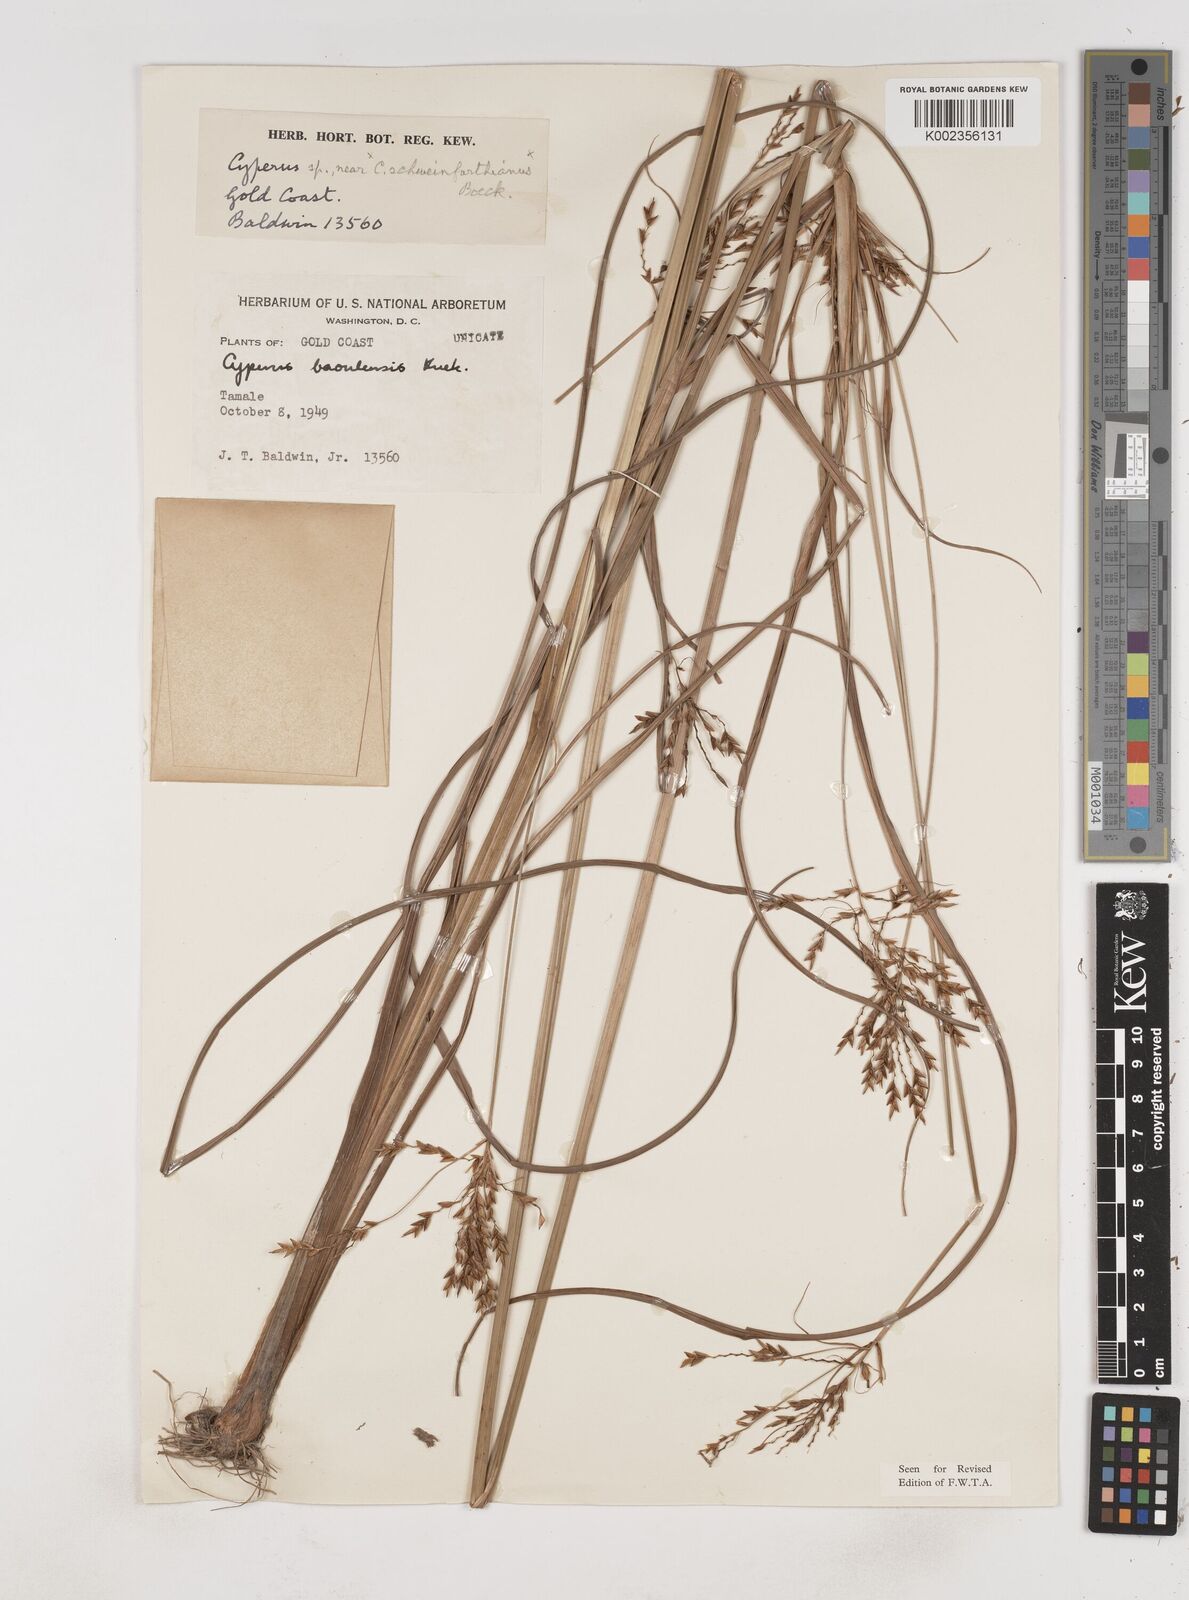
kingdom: Plantae
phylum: Tracheophyta
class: Liliopsida
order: Poales
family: Cyperaceae
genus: Cyperus
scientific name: Cyperus baoulensis
